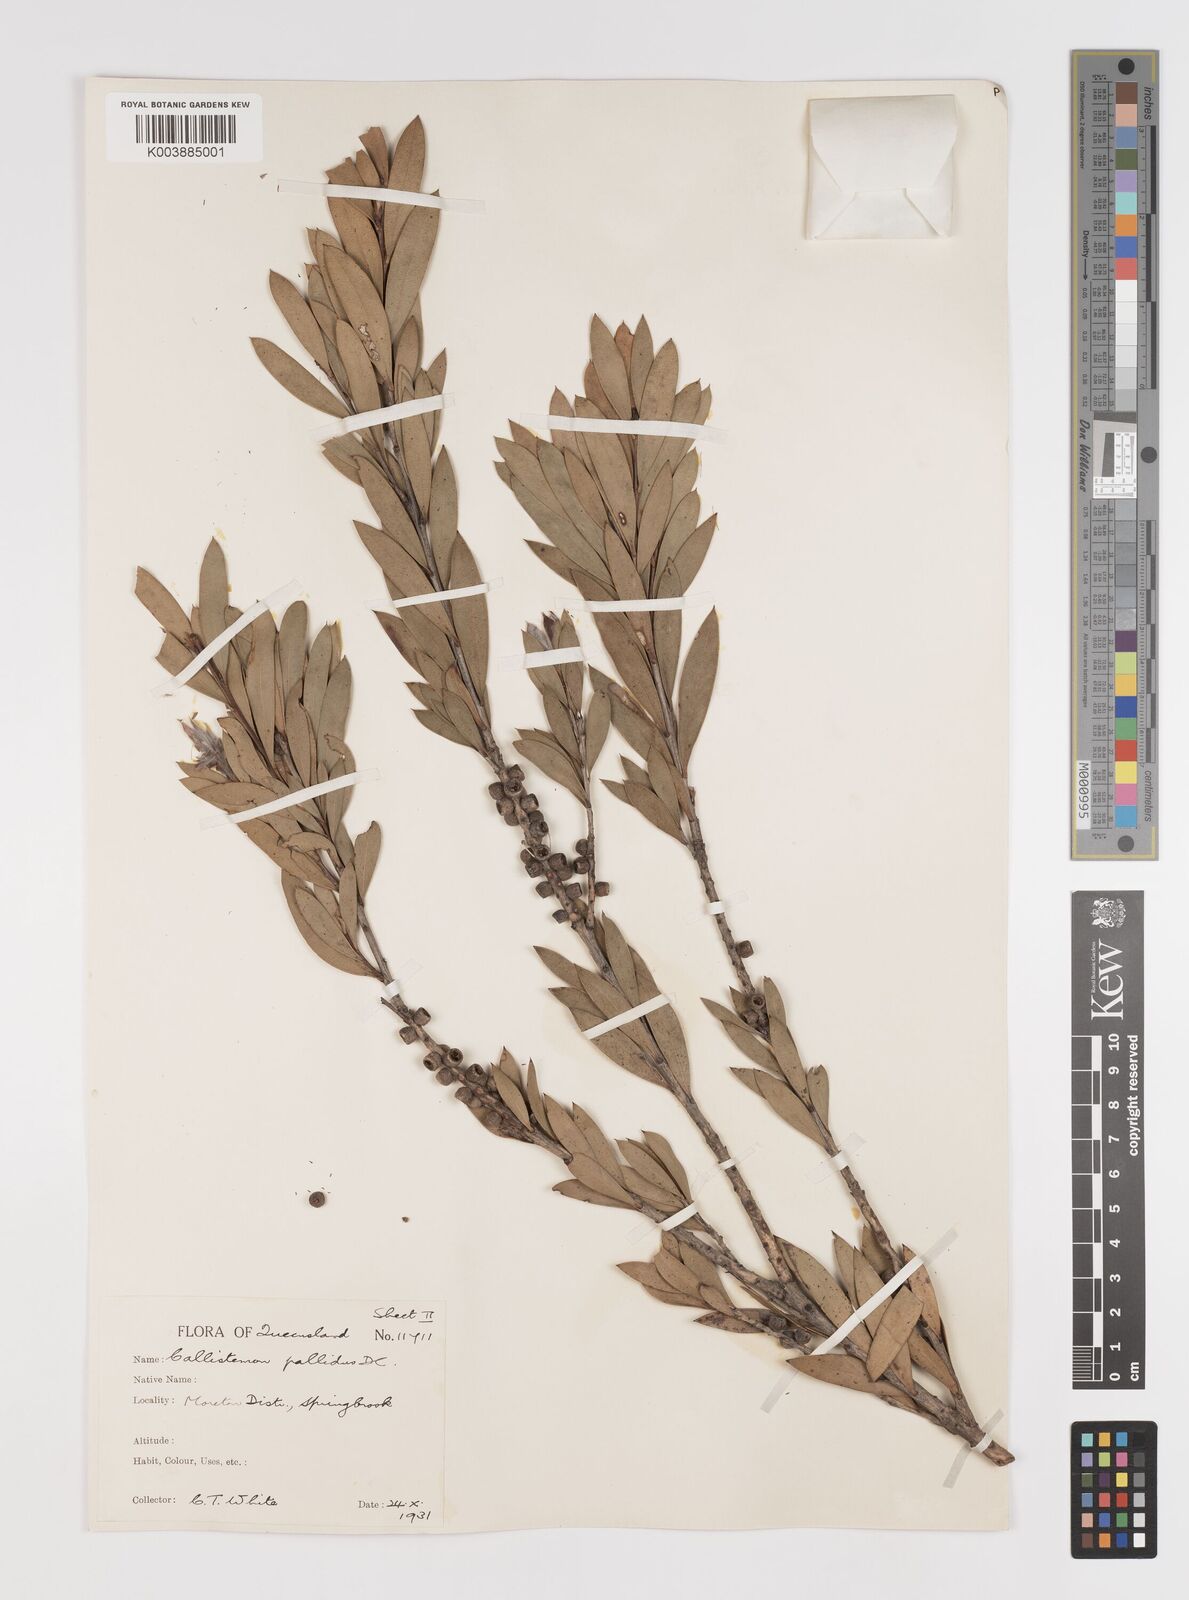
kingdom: Plantae
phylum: Tracheophyta
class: Magnoliopsida
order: Myrtales
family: Myrtaceae
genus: Melaleuca
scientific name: Melaleuca pallida
